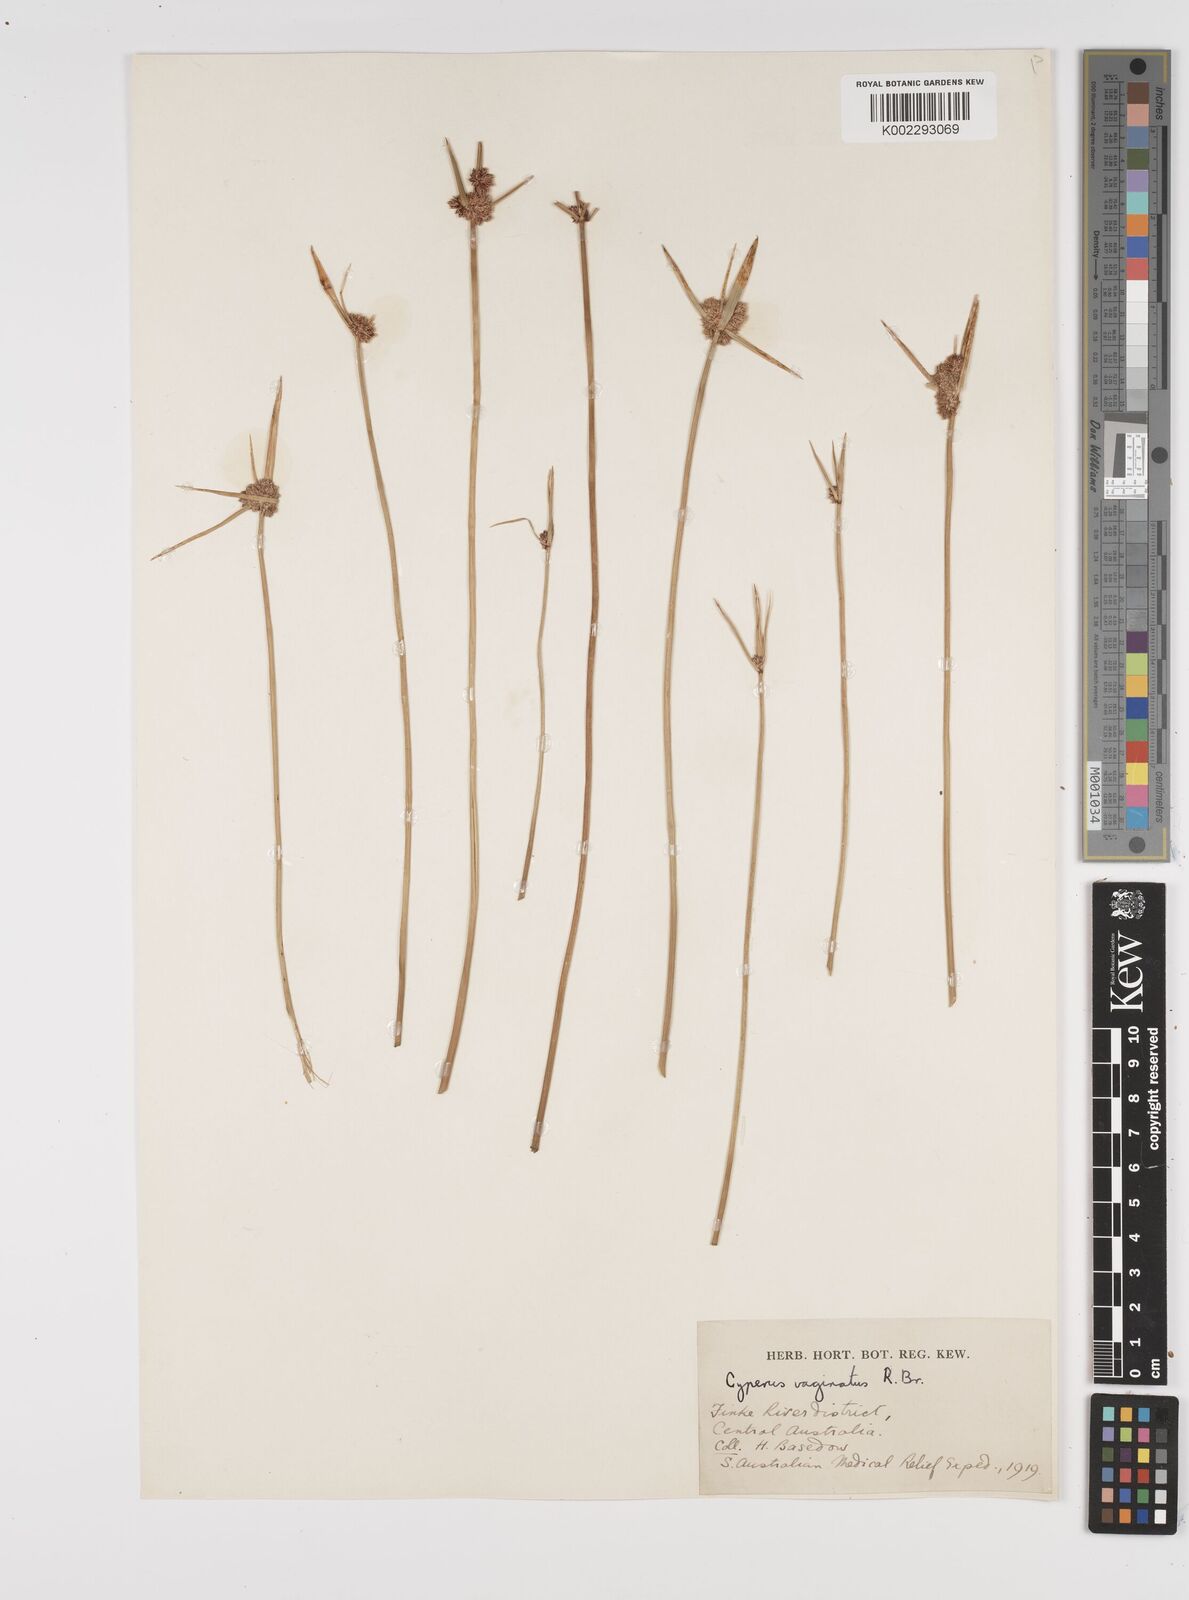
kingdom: Plantae
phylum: Tracheophyta
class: Liliopsida
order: Poales
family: Cyperaceae
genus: Cyperus
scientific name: Cyperus vaginatus
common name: Stiff-leaved flat-sedge
